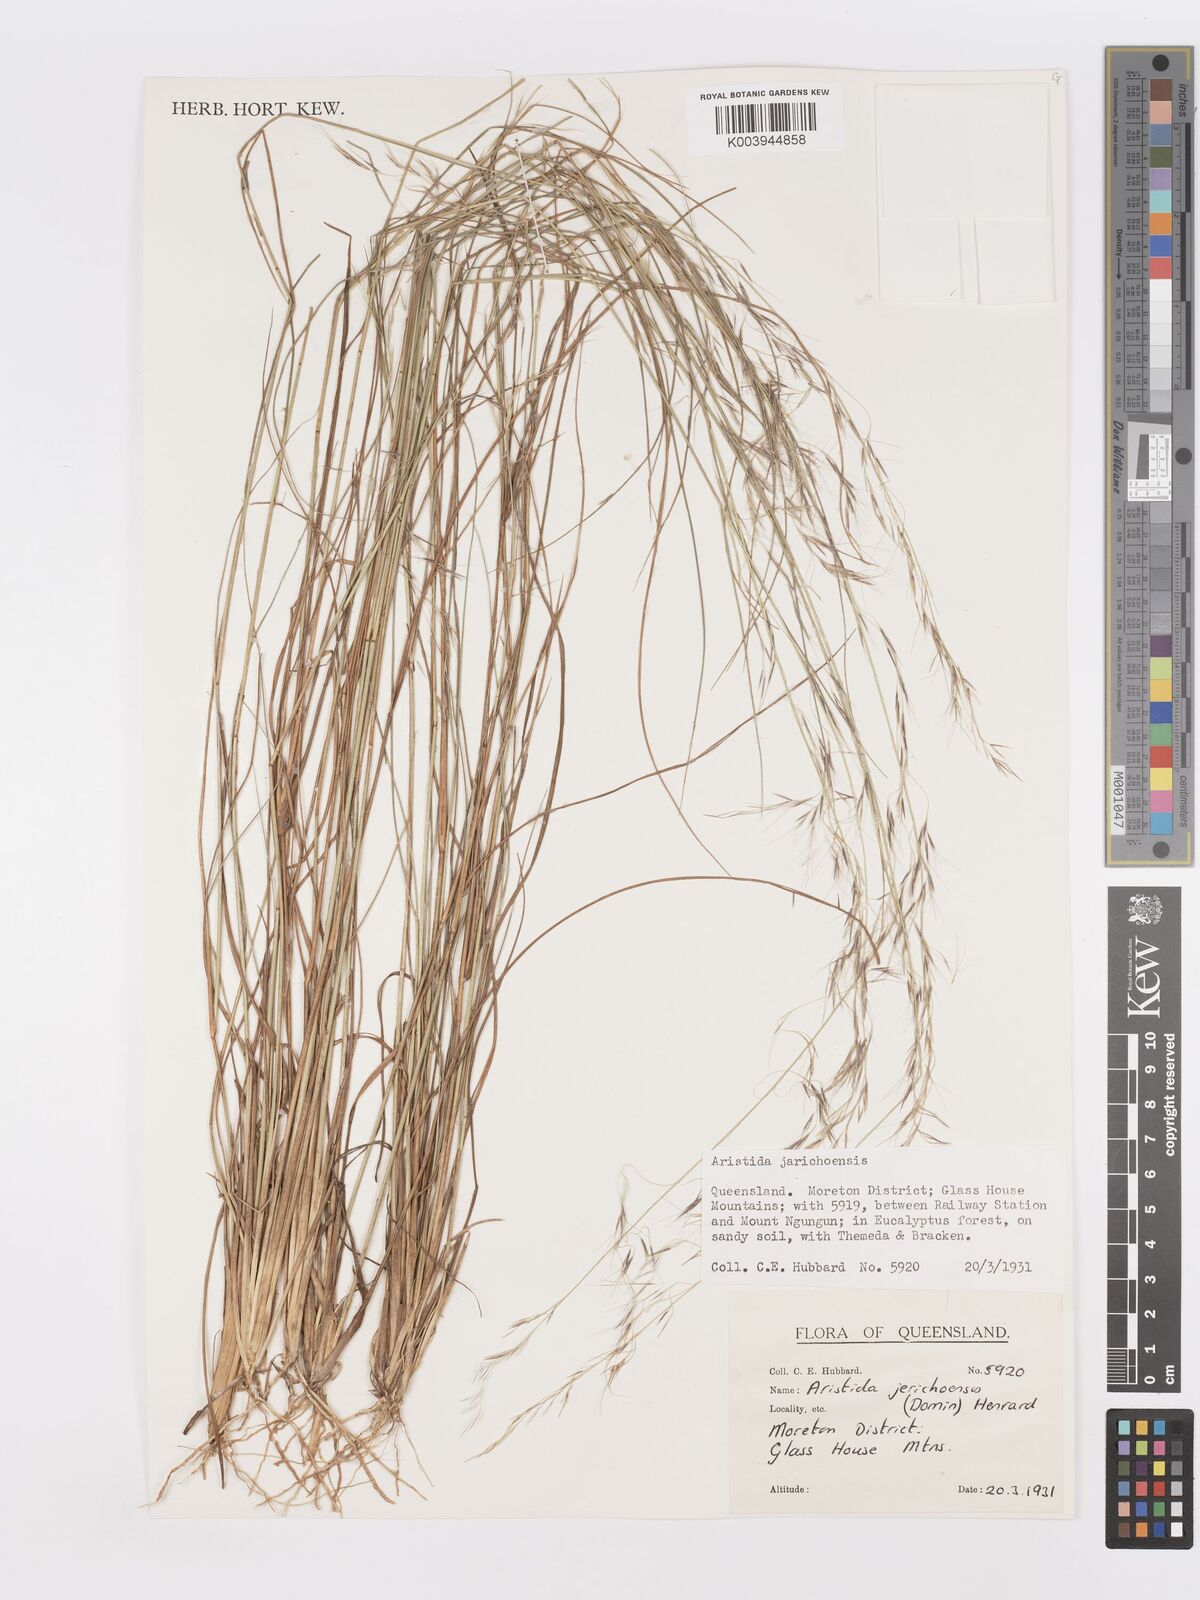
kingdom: Plantae
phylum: Tracheophyta
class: Liliopsida
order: Poales
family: Poaceae
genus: Aristida
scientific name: Aristida jerichoensis
